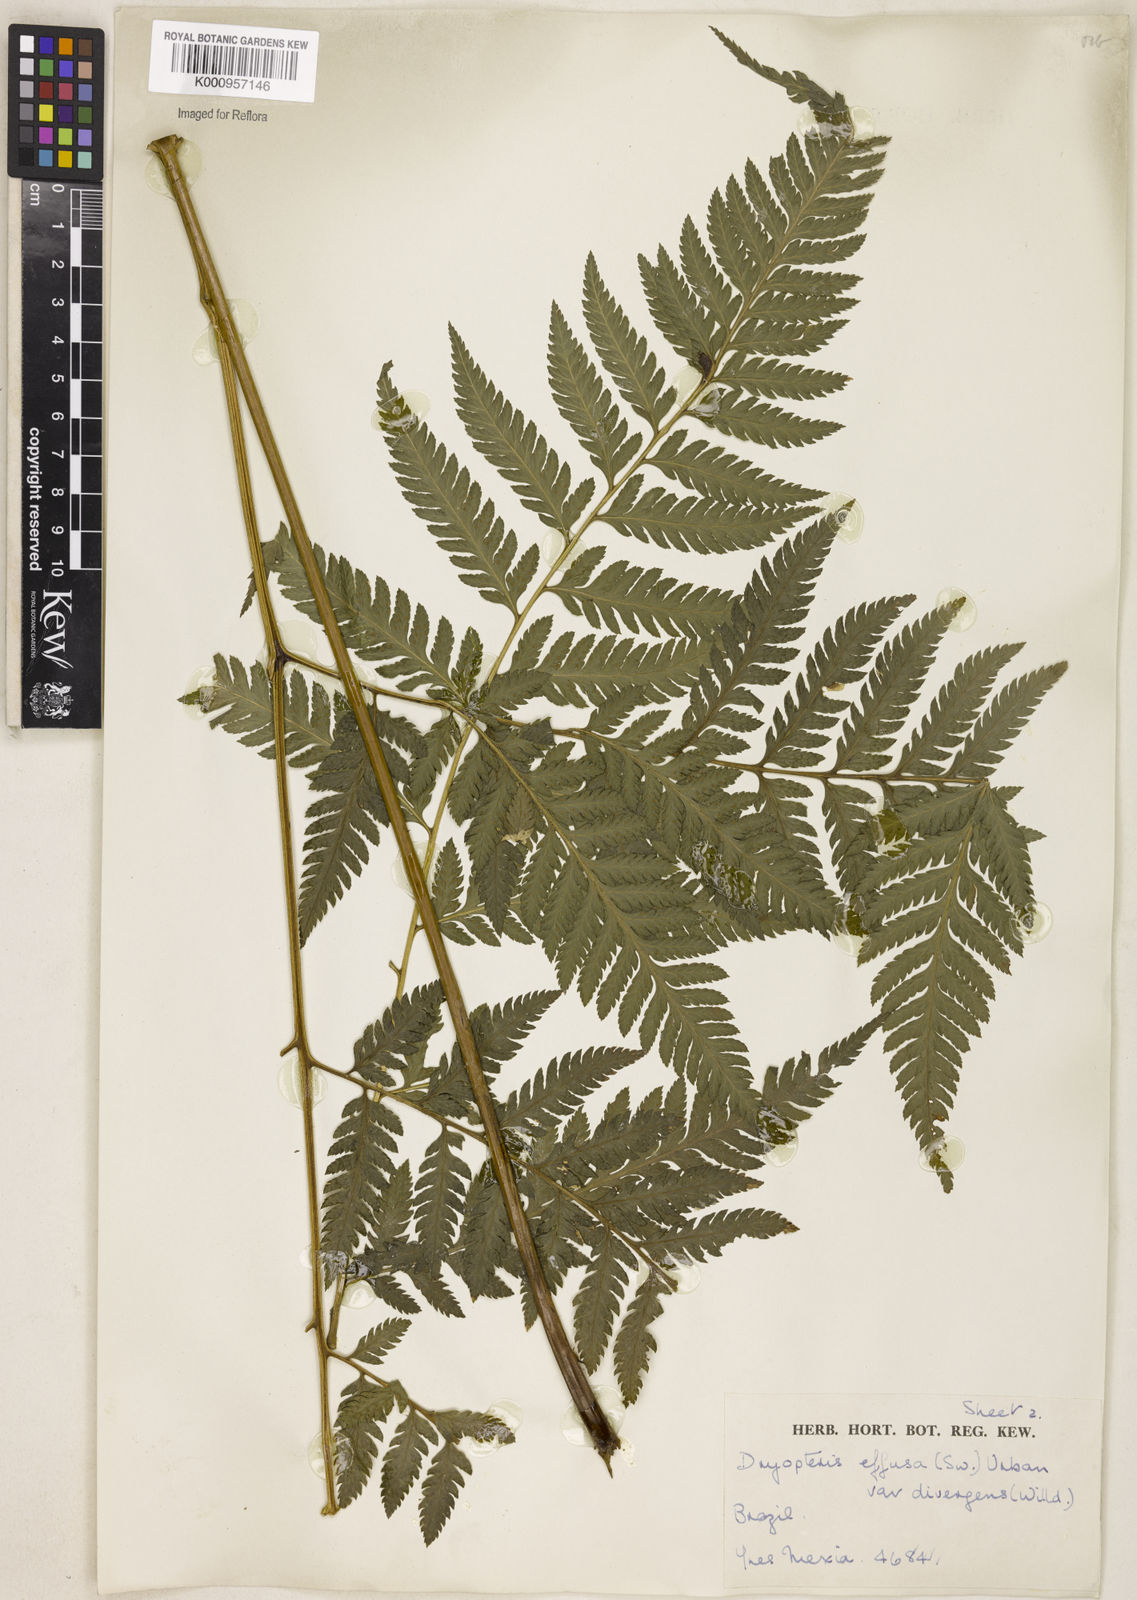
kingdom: Plantae
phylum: Tracheophyta
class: Polypodiopsida
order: Polypodiales
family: Dryopteridaceae
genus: Parapolystichum
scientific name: Parapolystichum effusum
